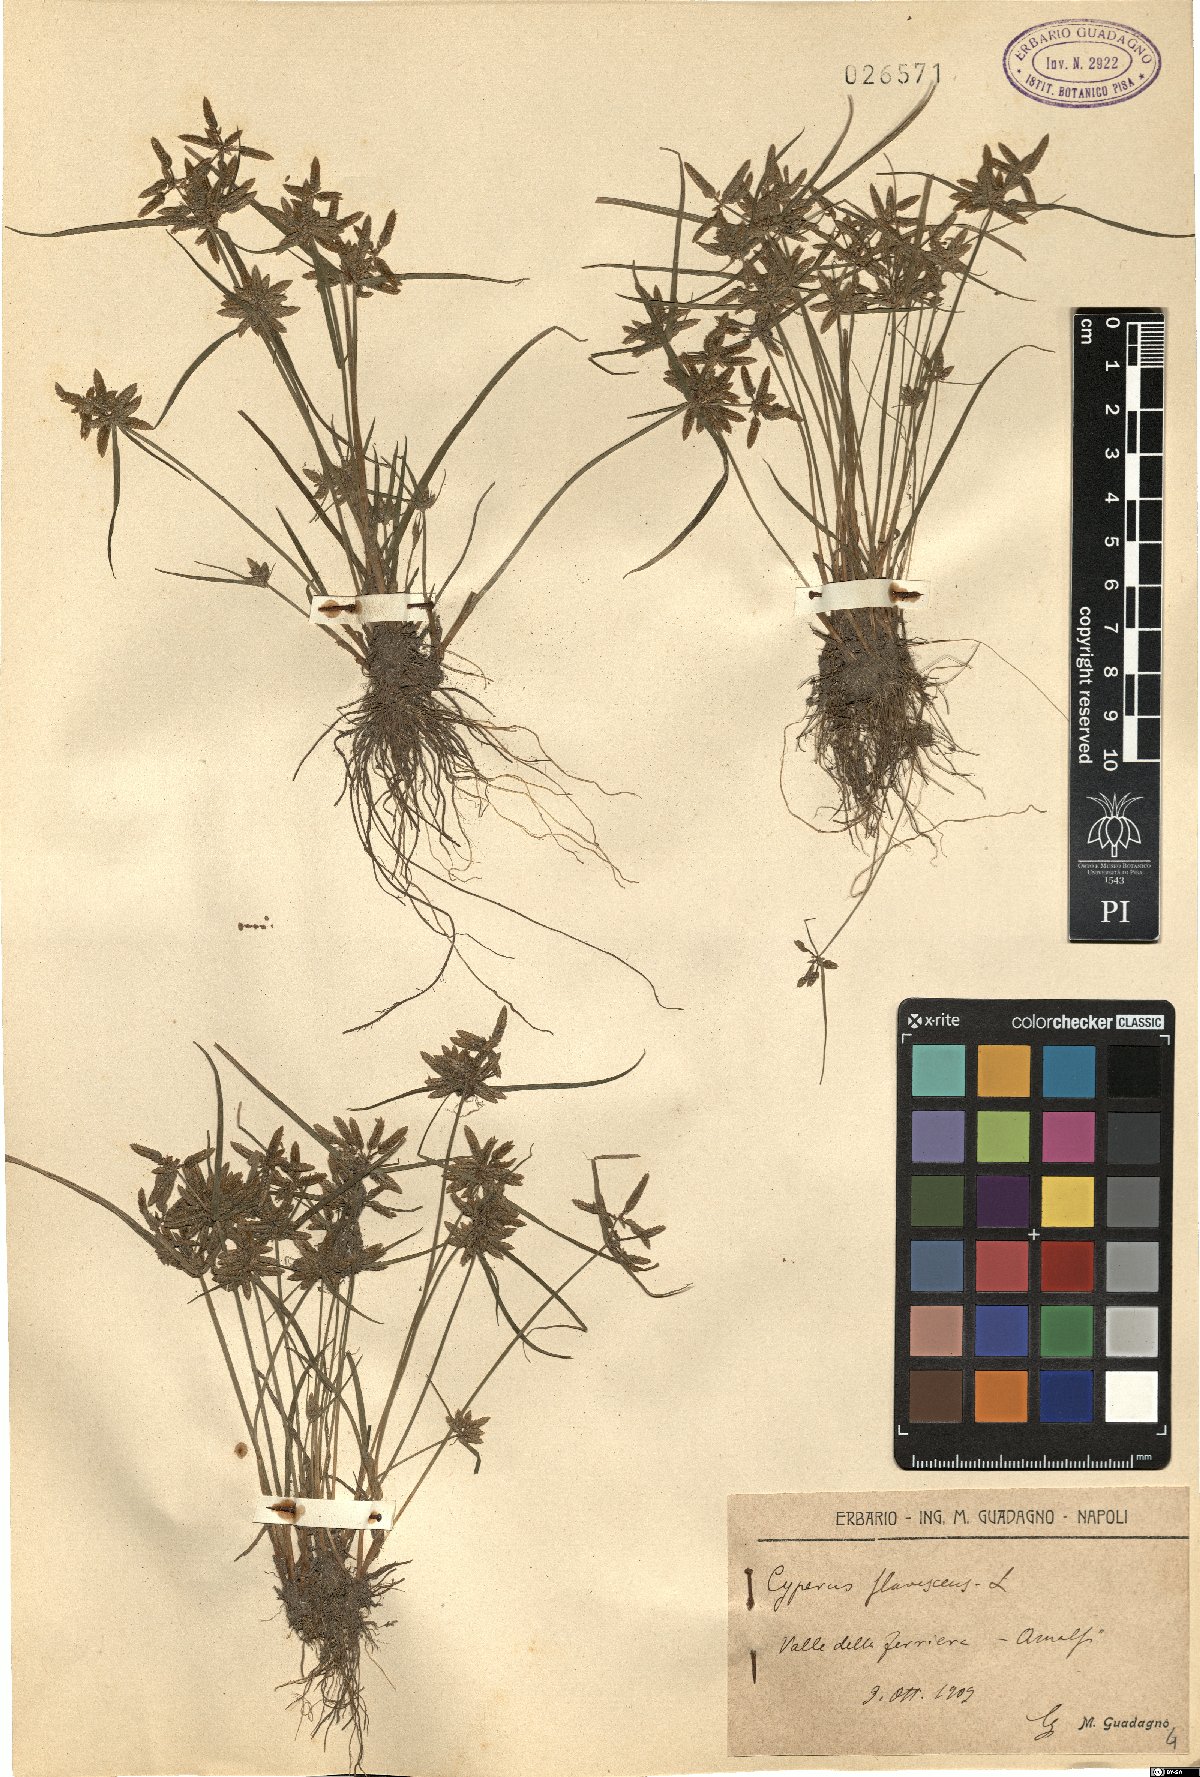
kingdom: Plantae
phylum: Tracheophyta
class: Liliopsida
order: Poales
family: Cyperaceae
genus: Cyperus
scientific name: Cyperus flavescens
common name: Yellow galingale
